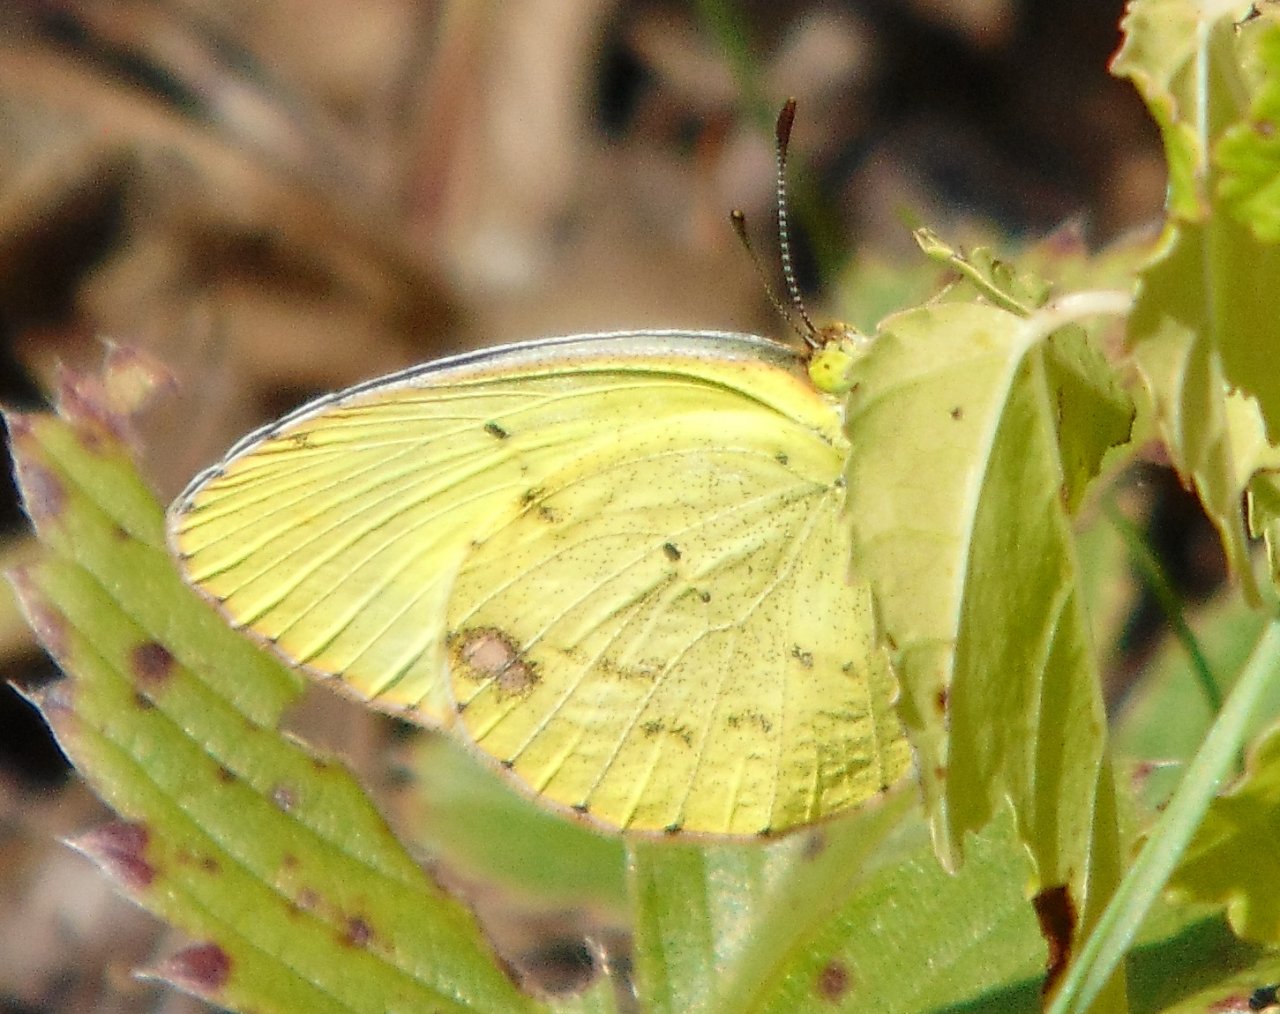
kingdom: Animalia
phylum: Arthropoda
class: Insecta
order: Lepidoptera
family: Pieridae
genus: Pyrisitia
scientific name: Pyrisitia lisa
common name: Little Yellow
